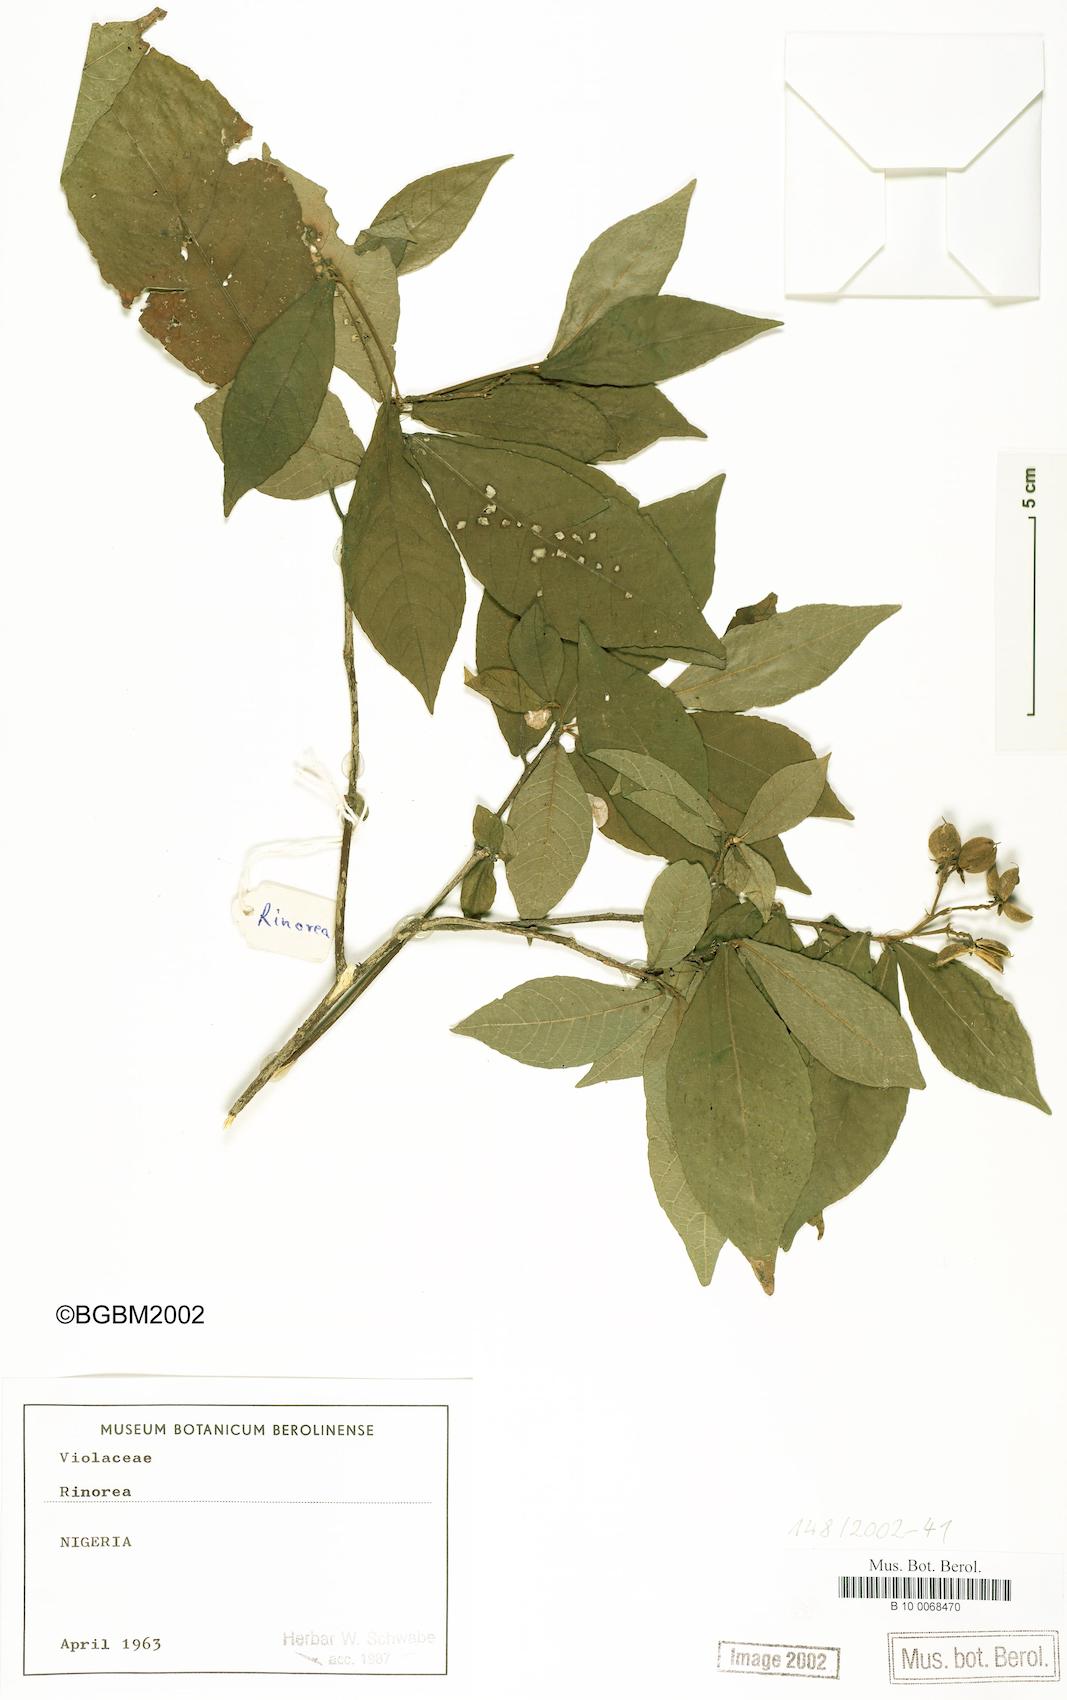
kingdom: Plantae
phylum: Tracheophyta
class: Magnoliopsida
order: Malpighiales
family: Violaceae
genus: Rinorea
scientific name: Rinorea
